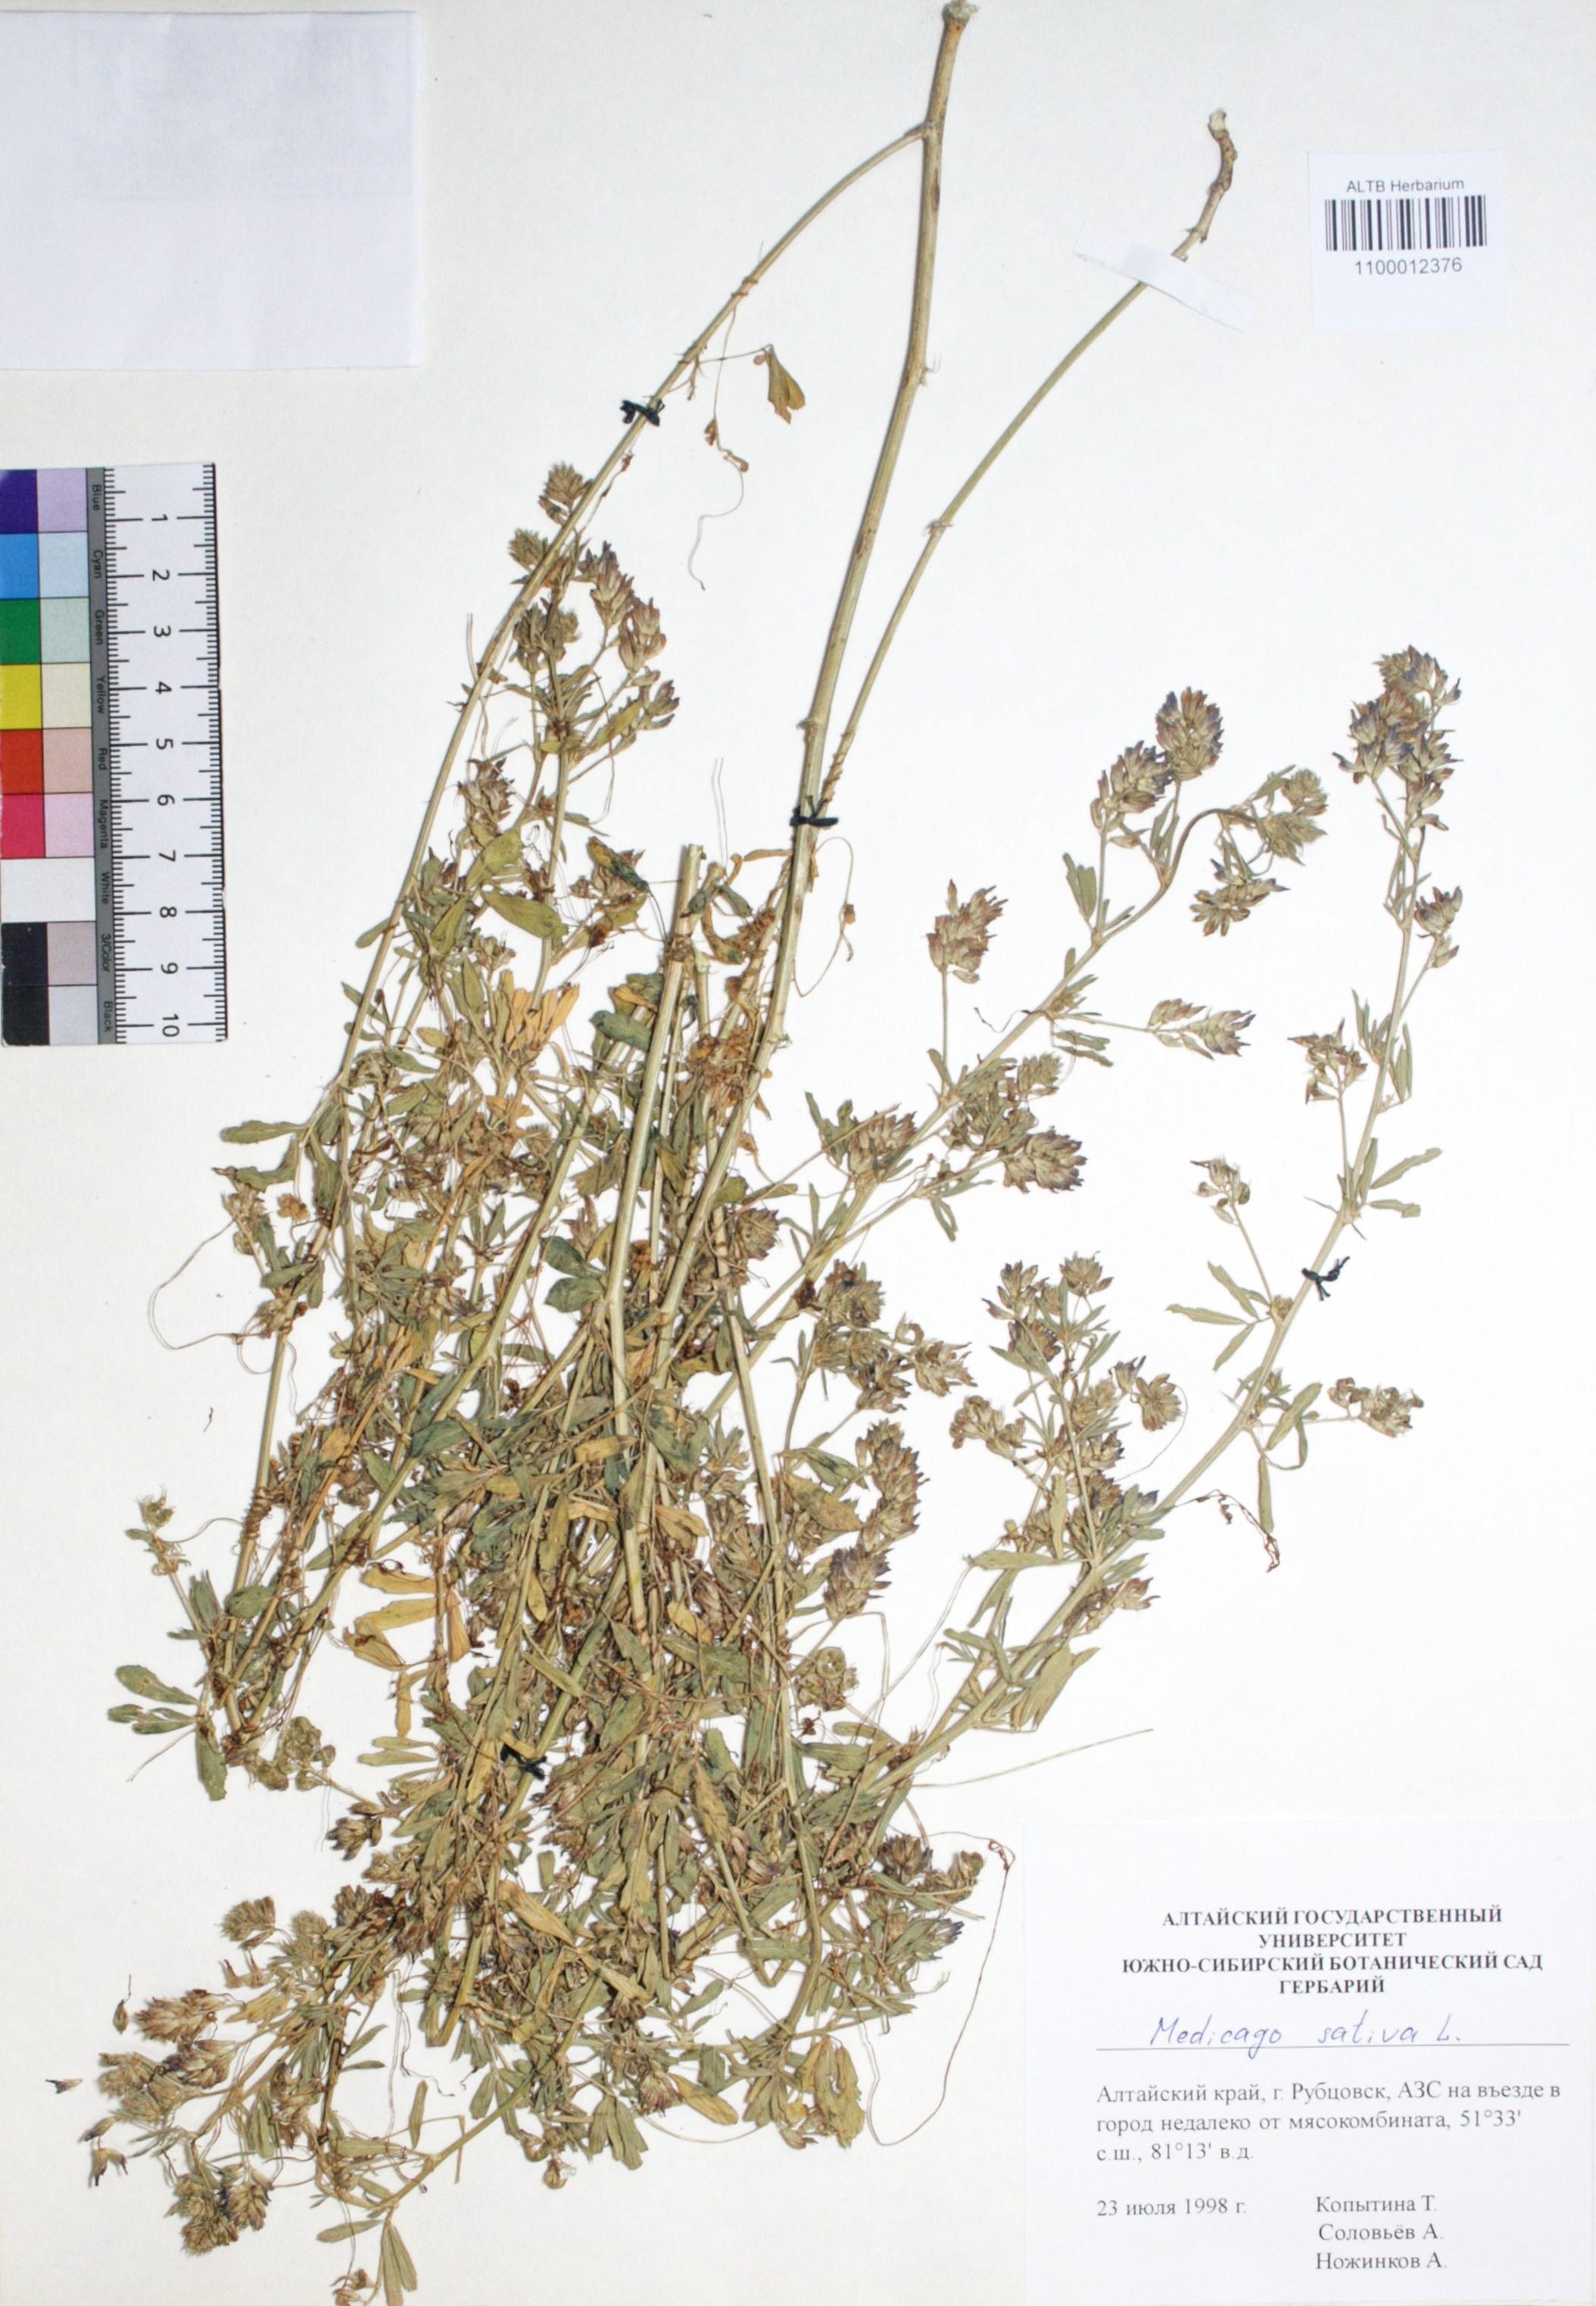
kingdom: Plantae
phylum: Tracheophyta
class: Magnoliopsida
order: Fabales
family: Fabaceae
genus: Medicago
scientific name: Medicago sativa
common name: Alfalfa
